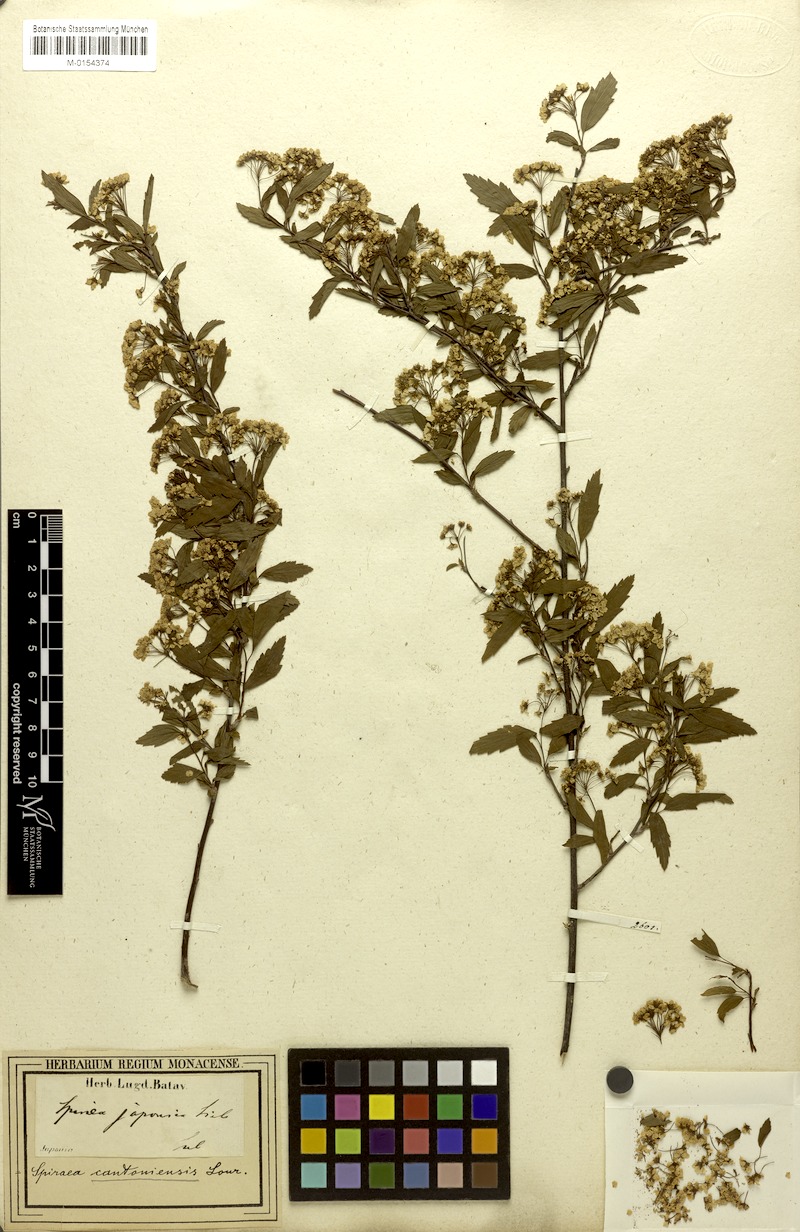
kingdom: Plantae
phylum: Tracheophyta
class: Magnoliopsida
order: Rosales
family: Rosaceae
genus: Spiraea
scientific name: Spiraea cantoniensis
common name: Reeves' meadowsweet
